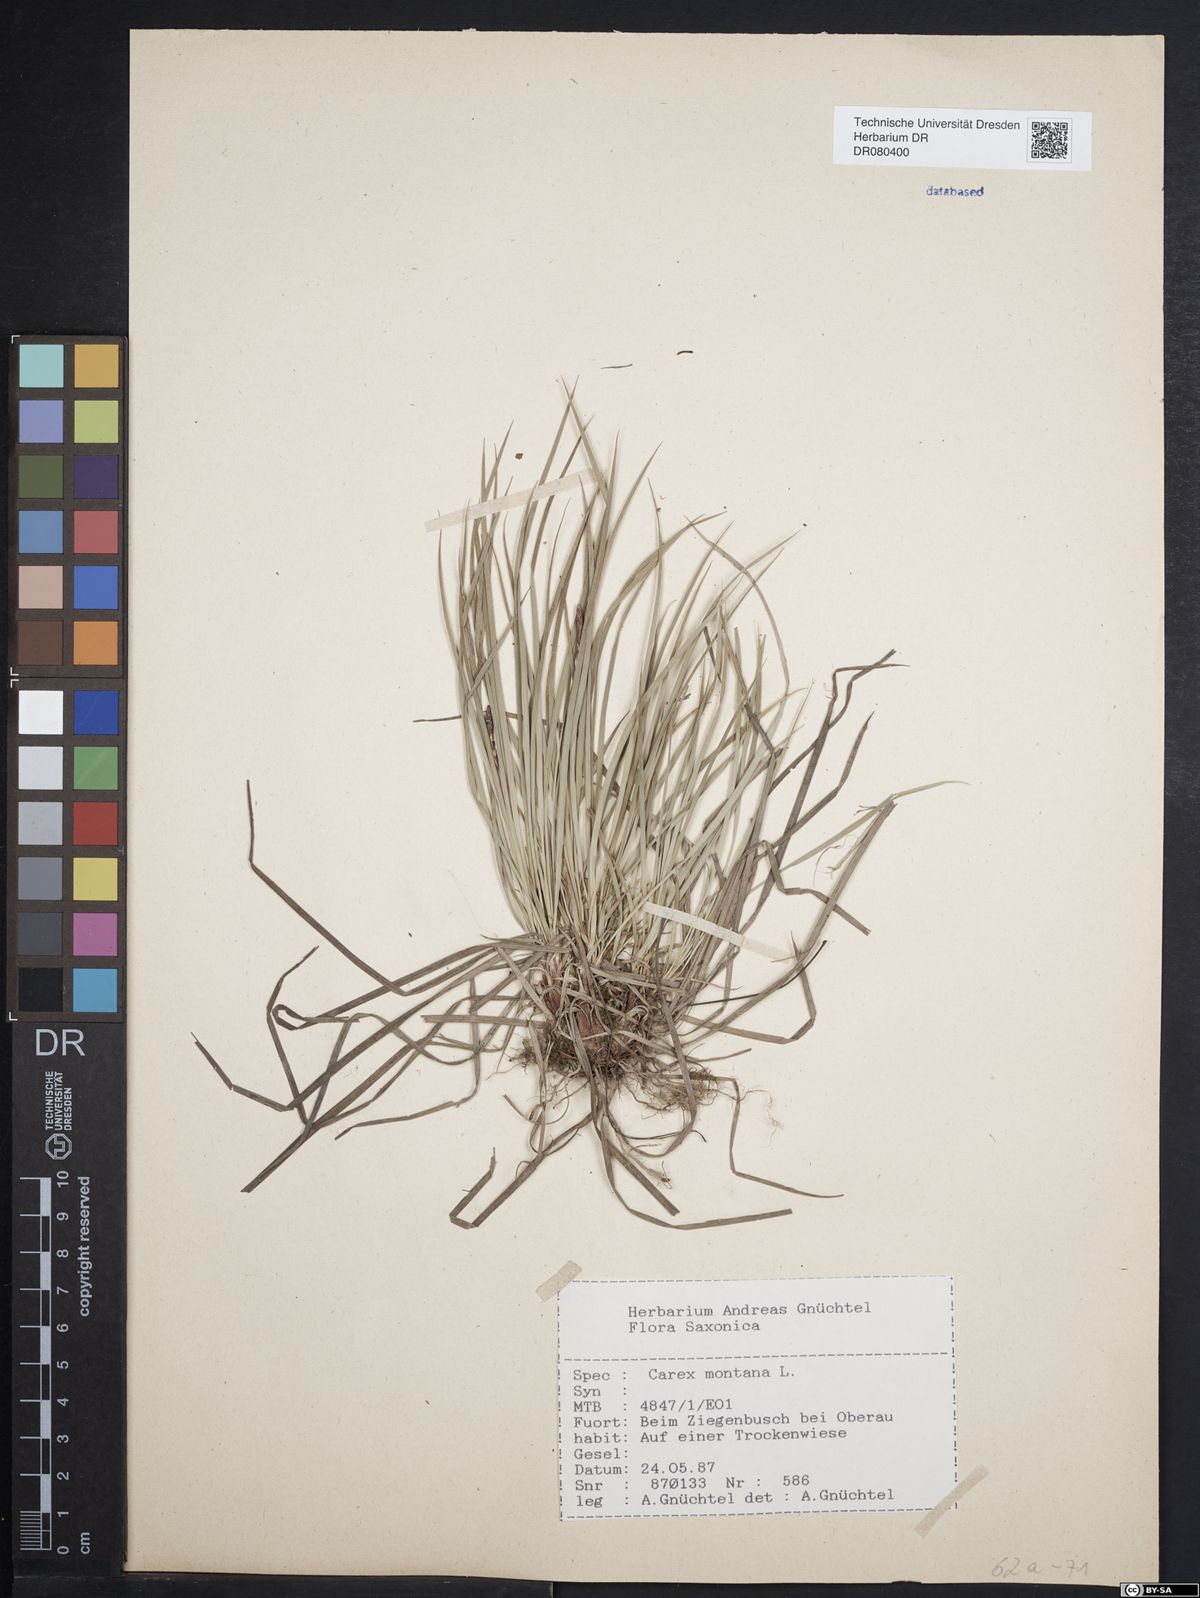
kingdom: Plantae
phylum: Tracheophyta
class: Liliopsida
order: Poales
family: Cyperaceae
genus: Carex
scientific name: Carex montana
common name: Soft-leaved sedge
